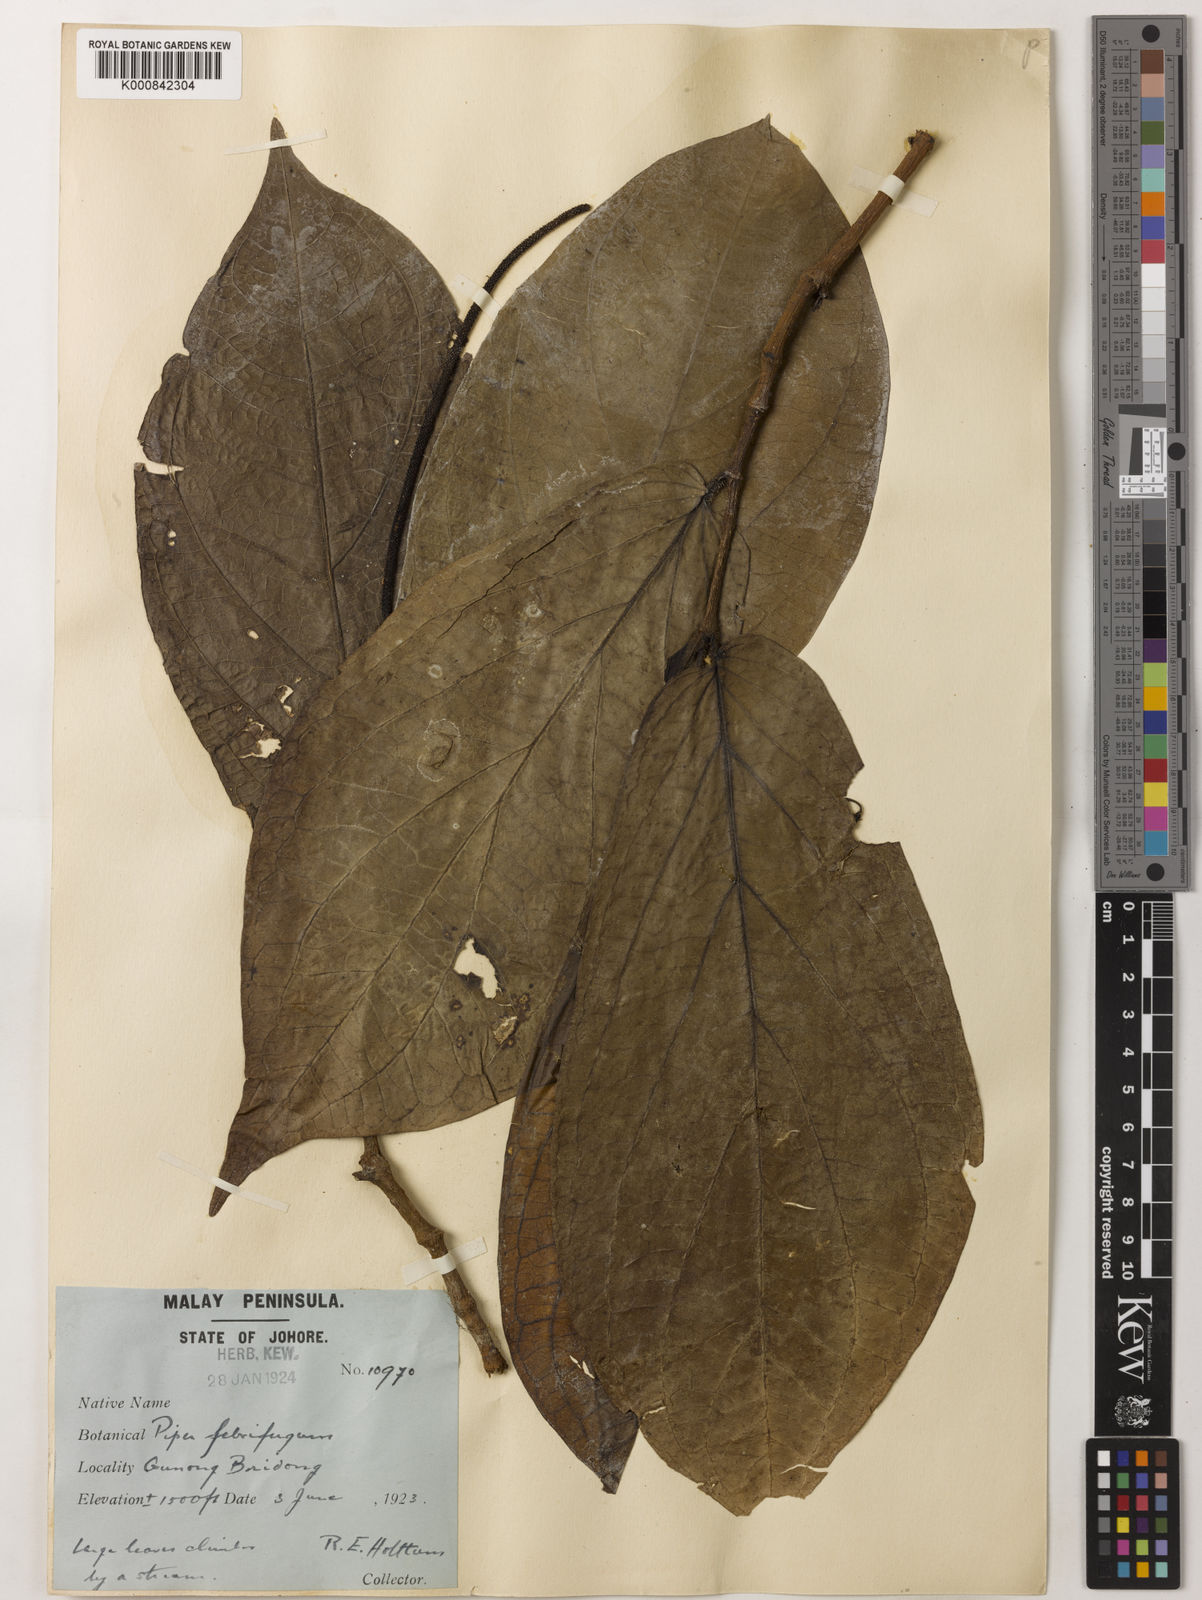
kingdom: Plantae
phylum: Tracheophyta
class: Magnoliopsida
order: Piperales
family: Piperaceae
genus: Piper
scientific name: Piper majusculum
